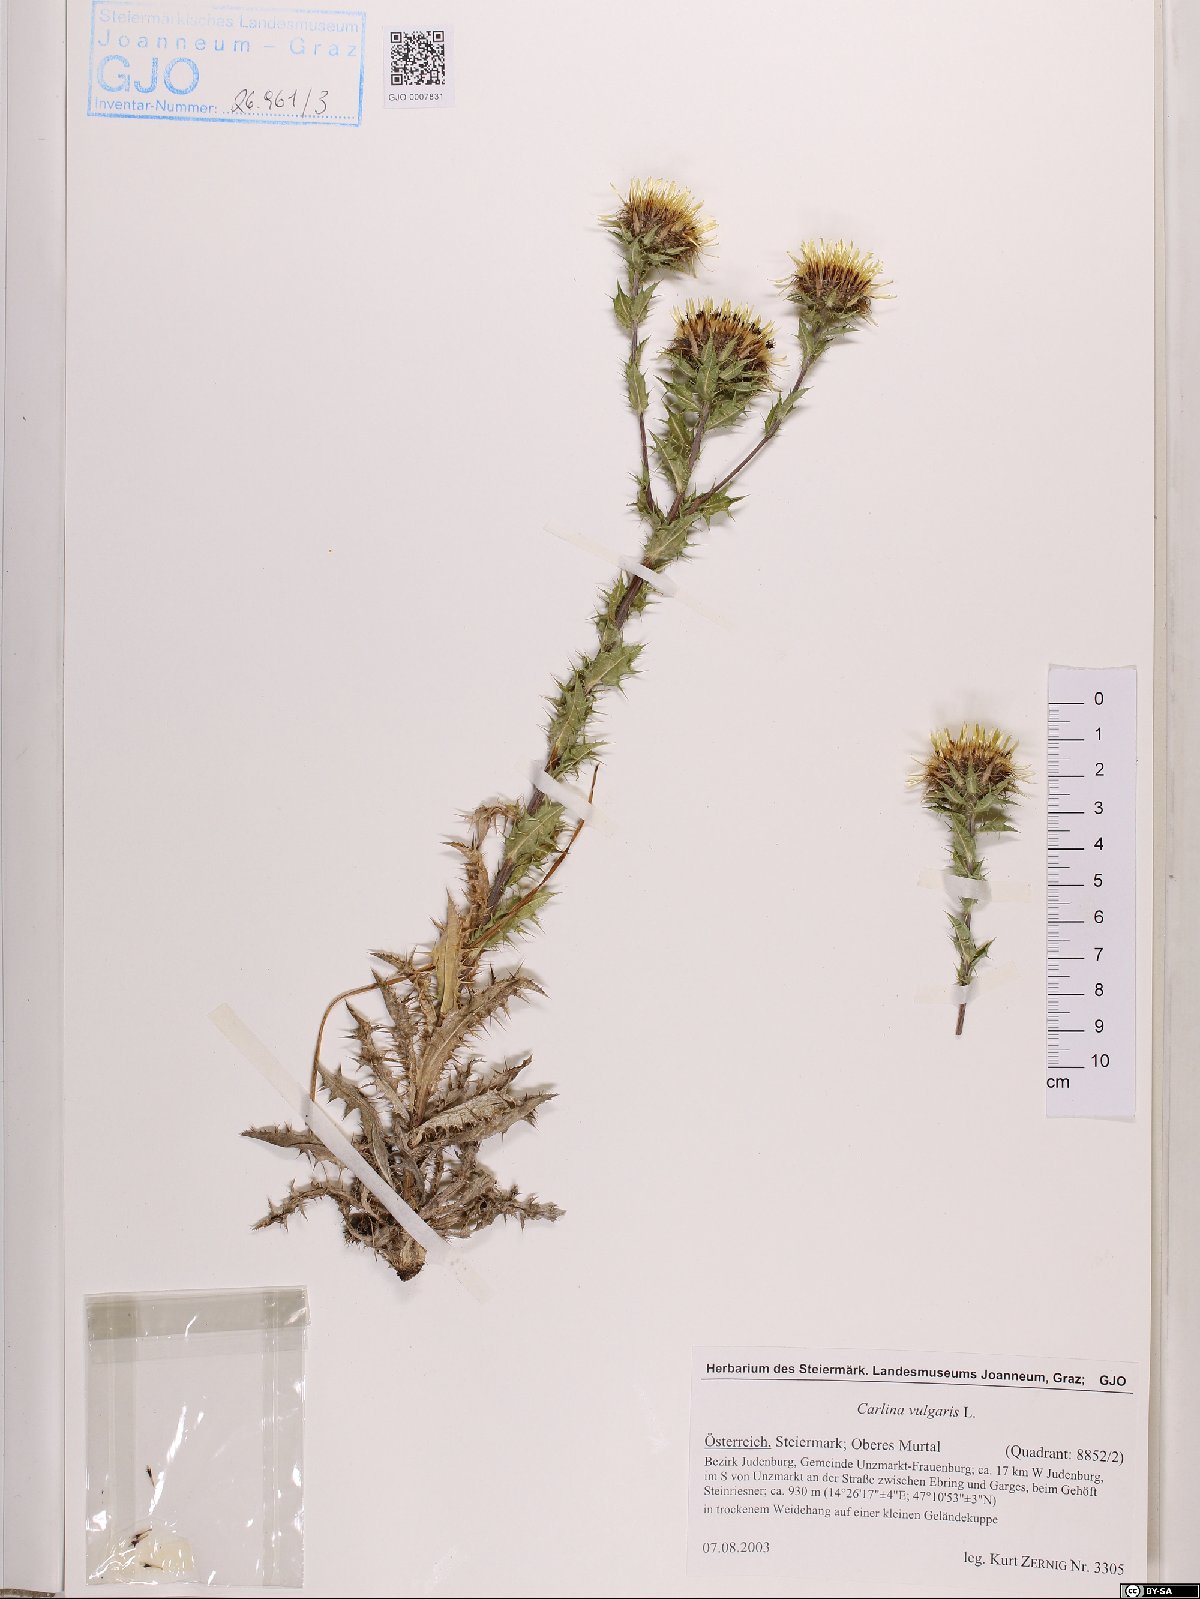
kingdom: Plantae
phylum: Tracheophyta
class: Magnoliopsida
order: Asterales
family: Asteraceae
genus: Carlina
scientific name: Carlina vulgaris
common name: Carline thistle
